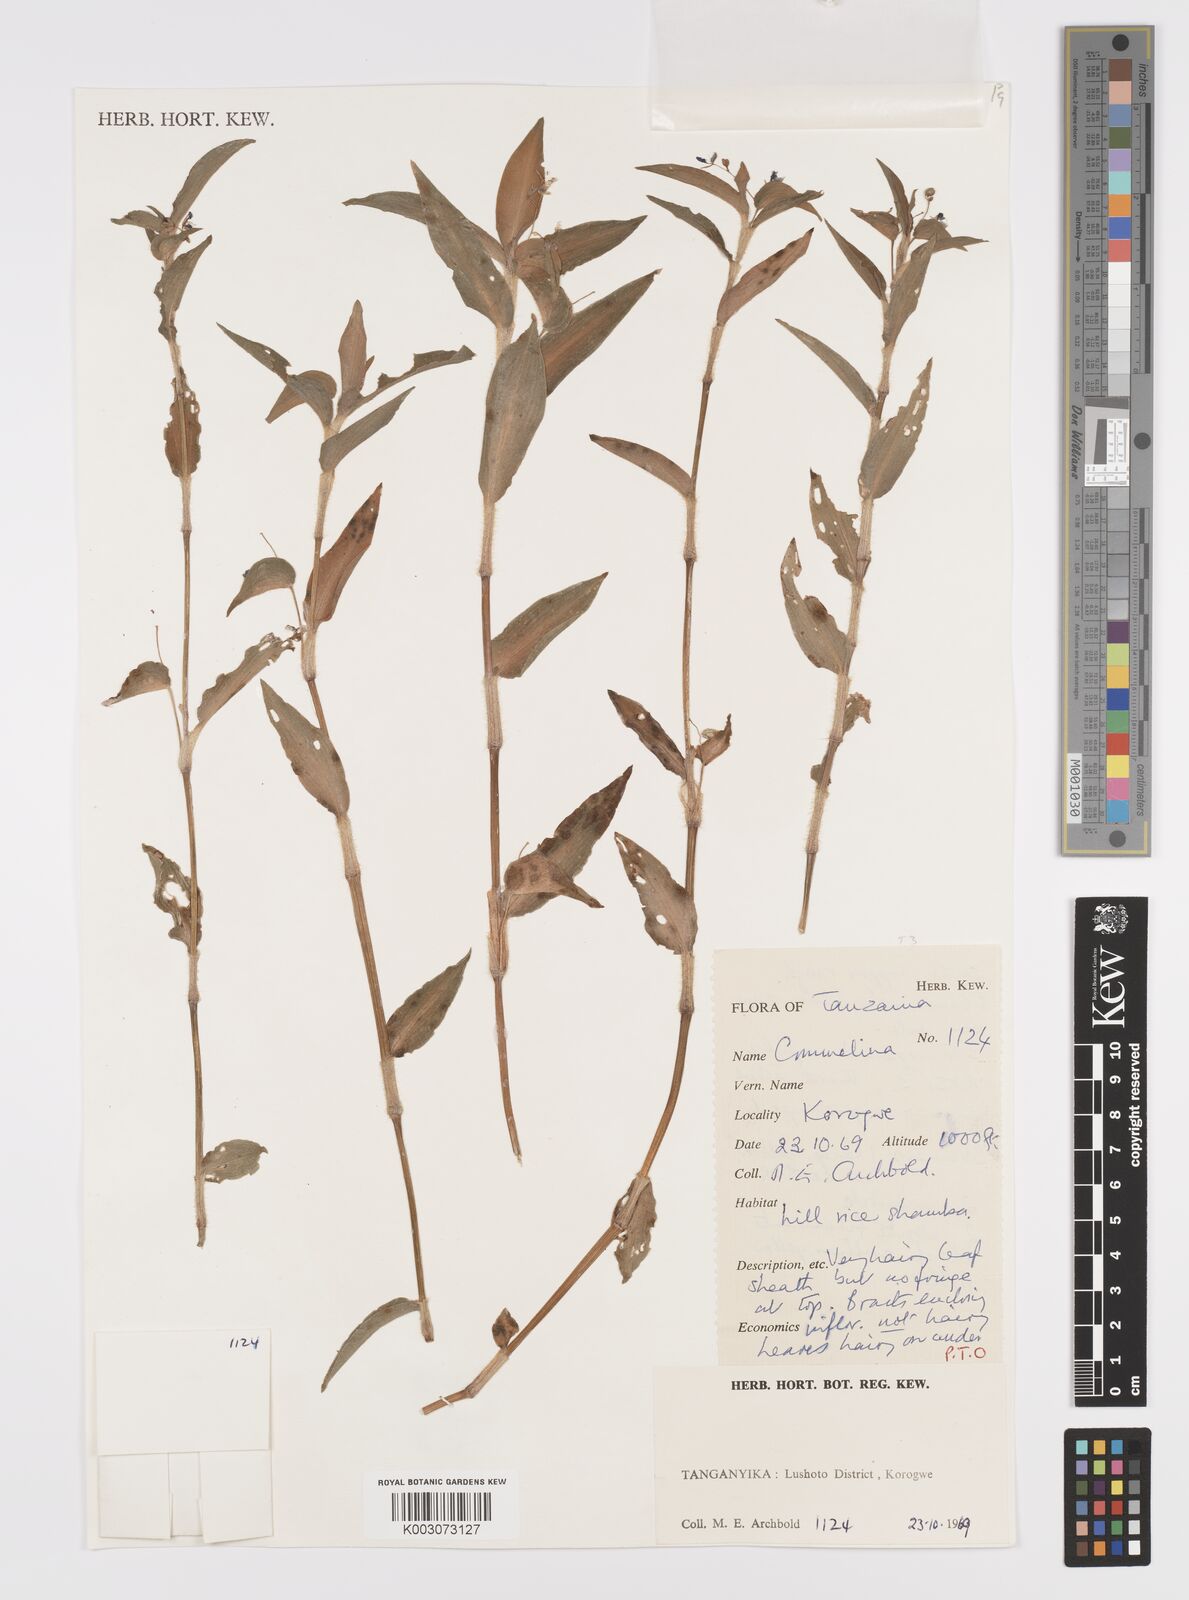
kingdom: Plantae
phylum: Tracheophyta
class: Liliopsida
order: Commelinales
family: Commelinaceae
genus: Commelina
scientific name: Commelina diffusa
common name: Climbing dayflower
